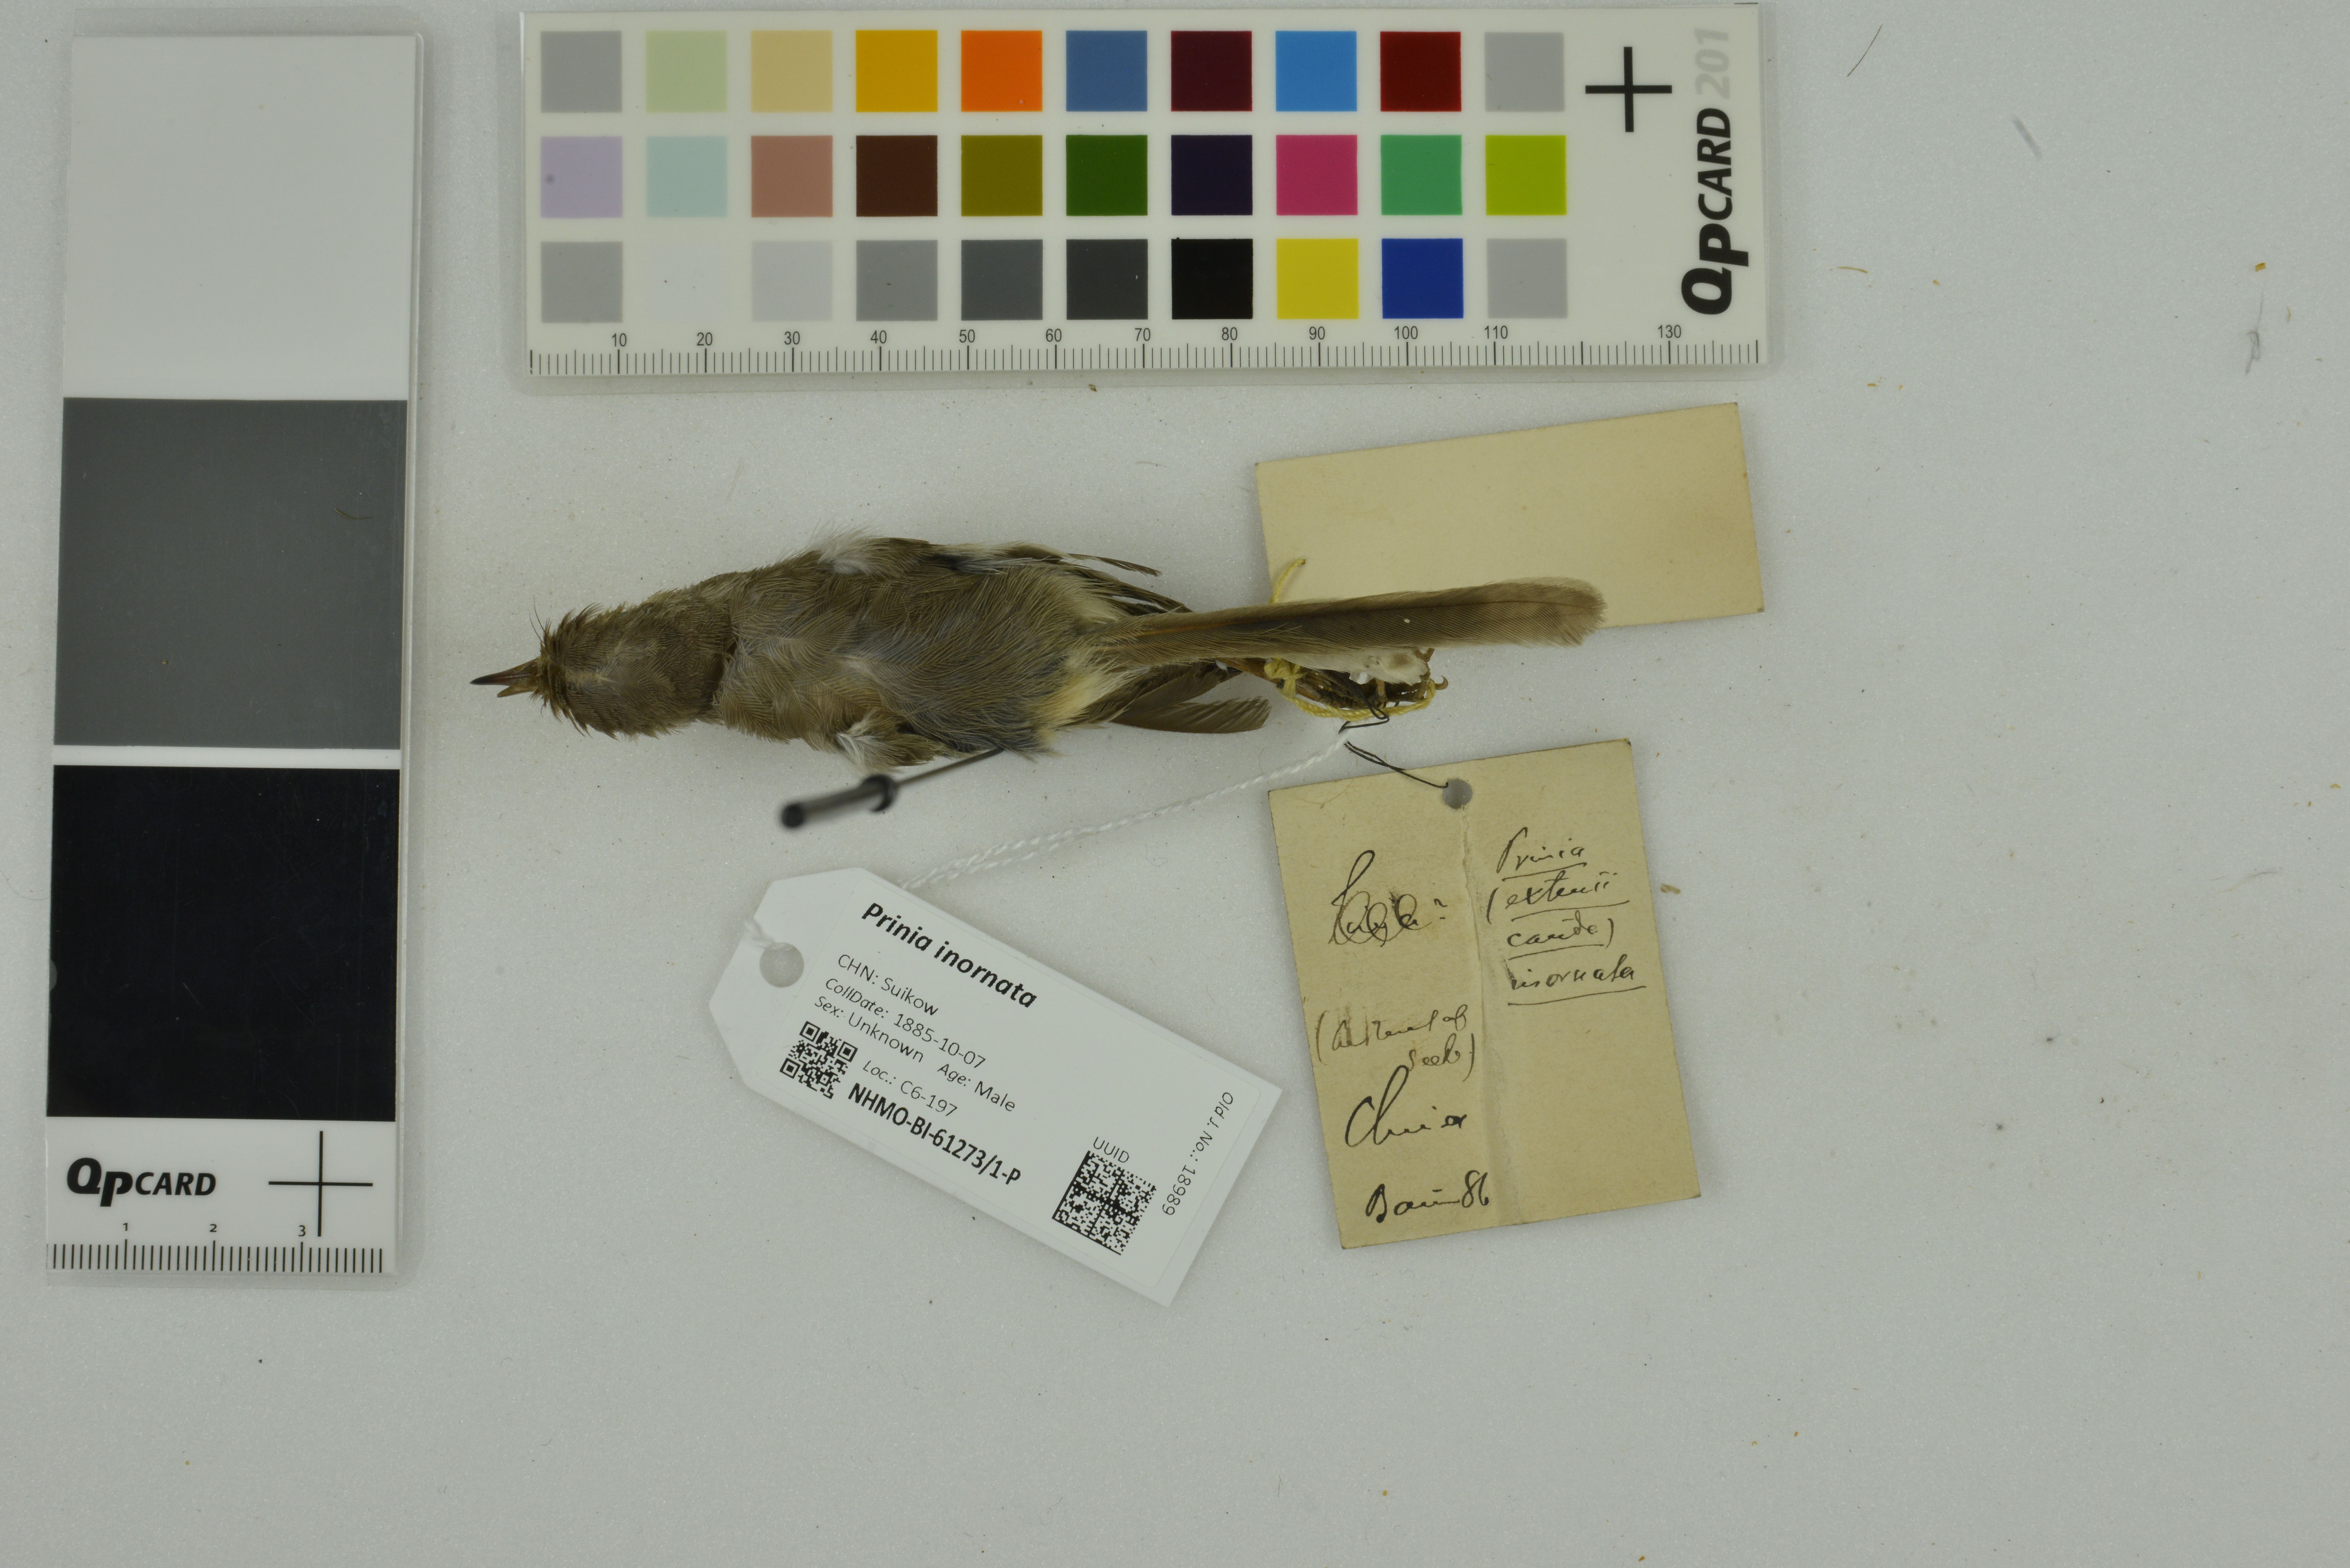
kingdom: Animalia
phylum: Chordata
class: Aves
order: Passeriformes
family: Cisticolidae
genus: Prinia
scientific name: Prinia inornata
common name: Plain prinia
